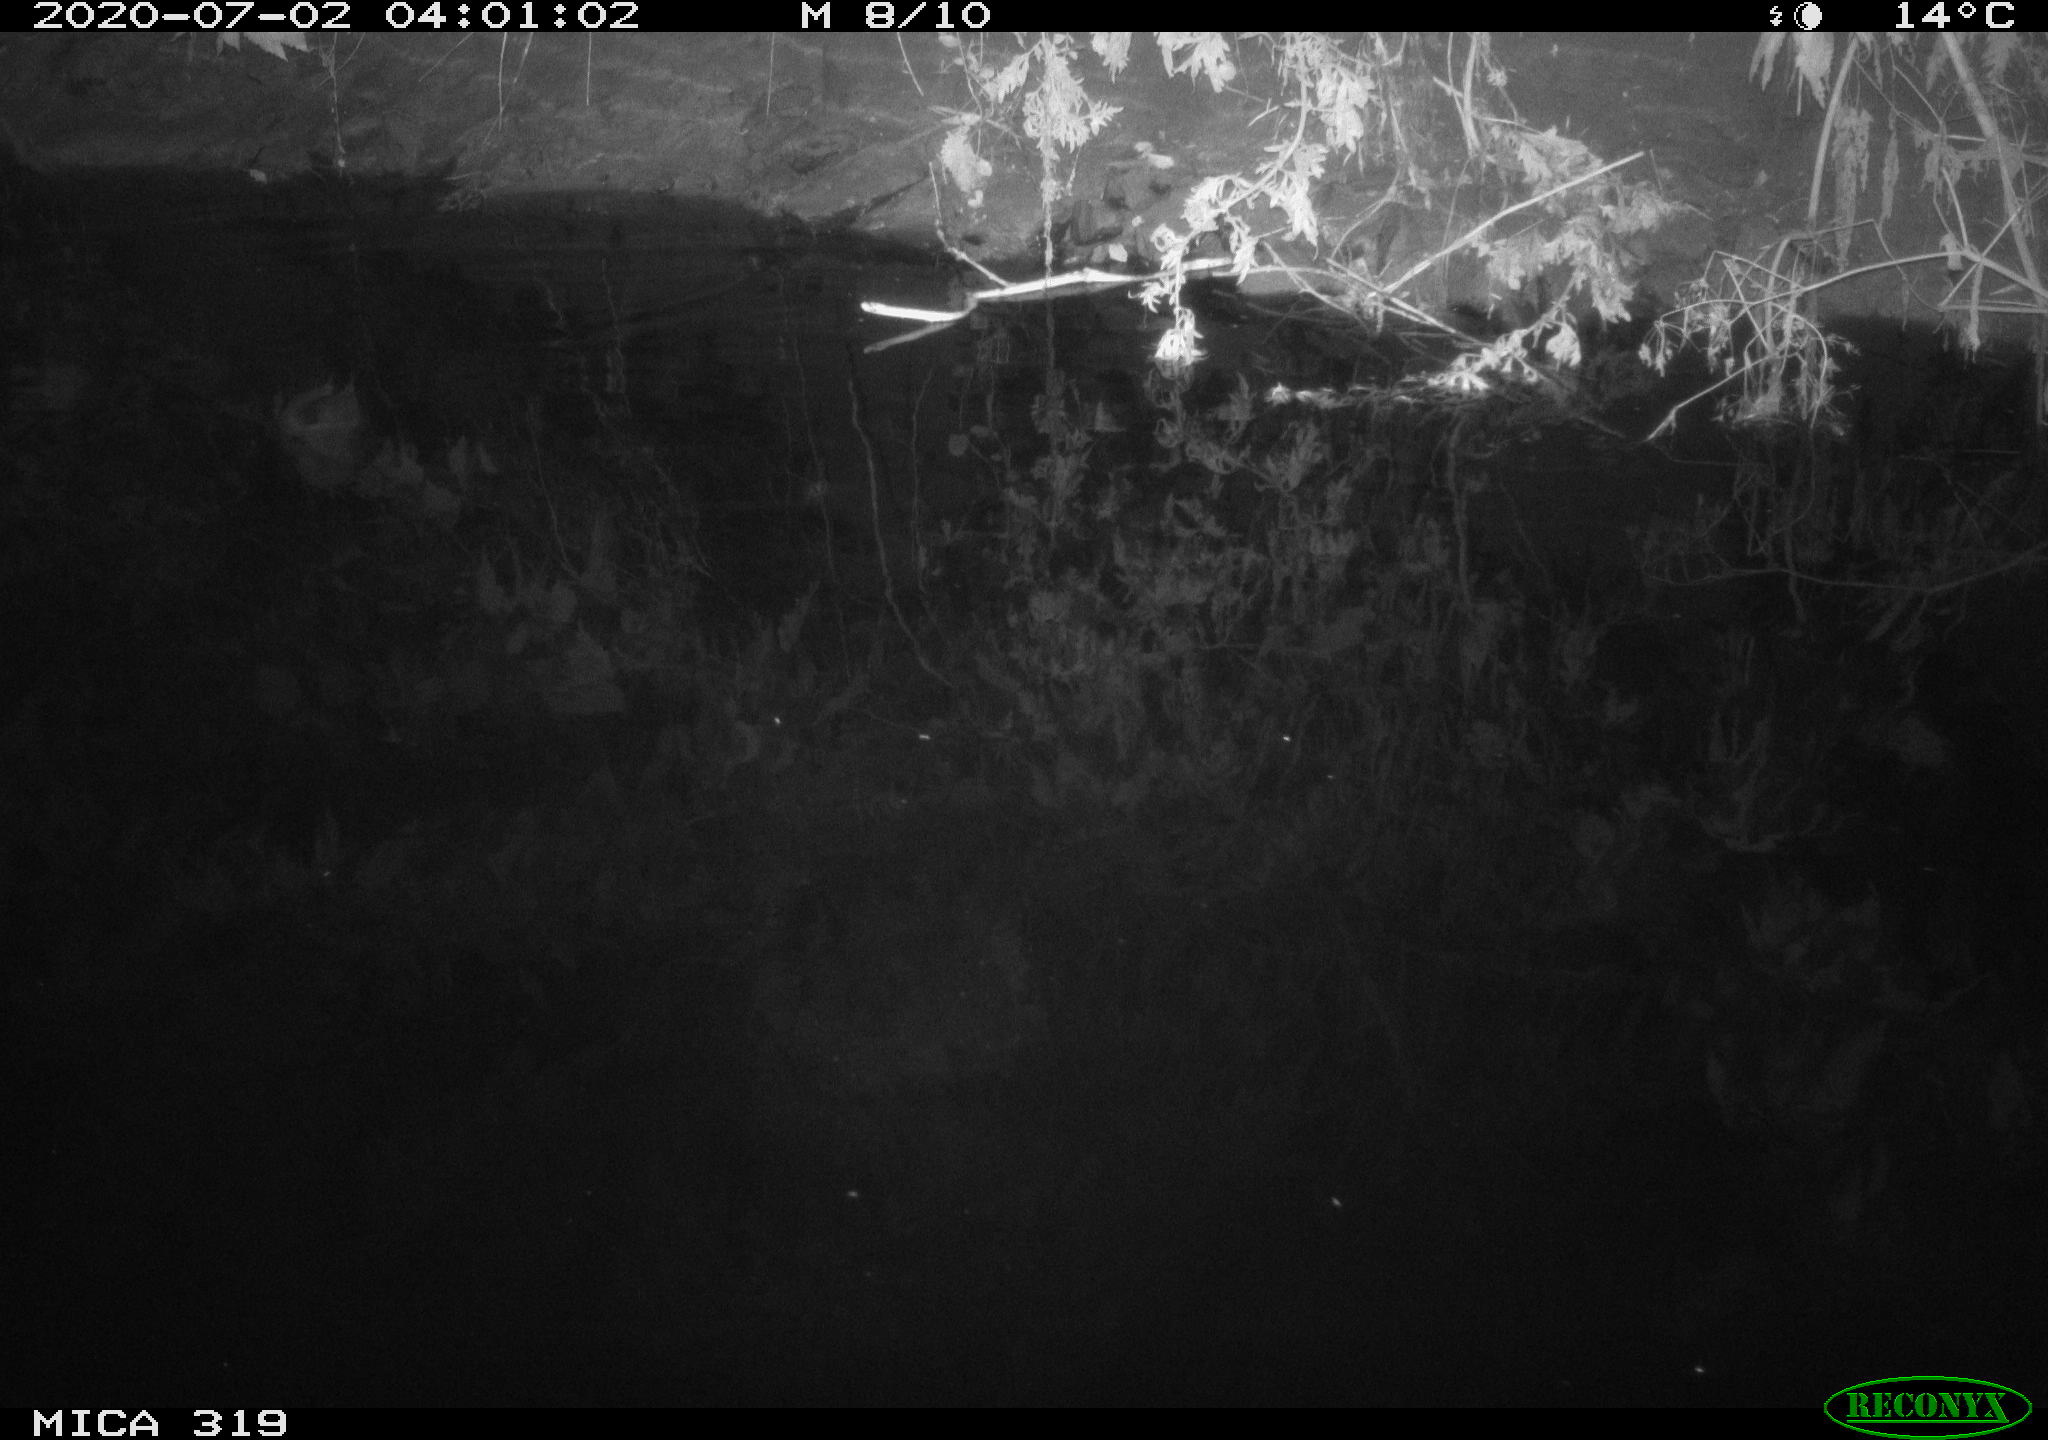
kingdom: Animalia
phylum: Chordata
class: Aves
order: Anseriformes
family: Anatidae
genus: Anas
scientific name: Anas platyrhynchos
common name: Mallard
